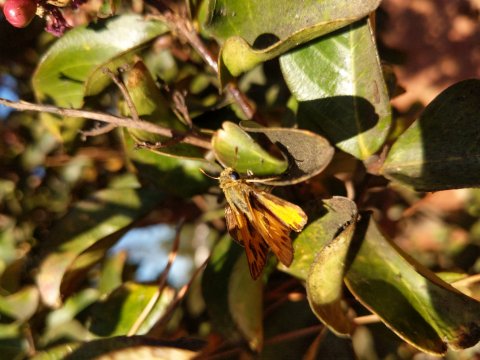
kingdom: Animalia
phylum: Arthropoda
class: Insecta
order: Lepidoptera
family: Hesperiidae
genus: Hylephila
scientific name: Hylephila
